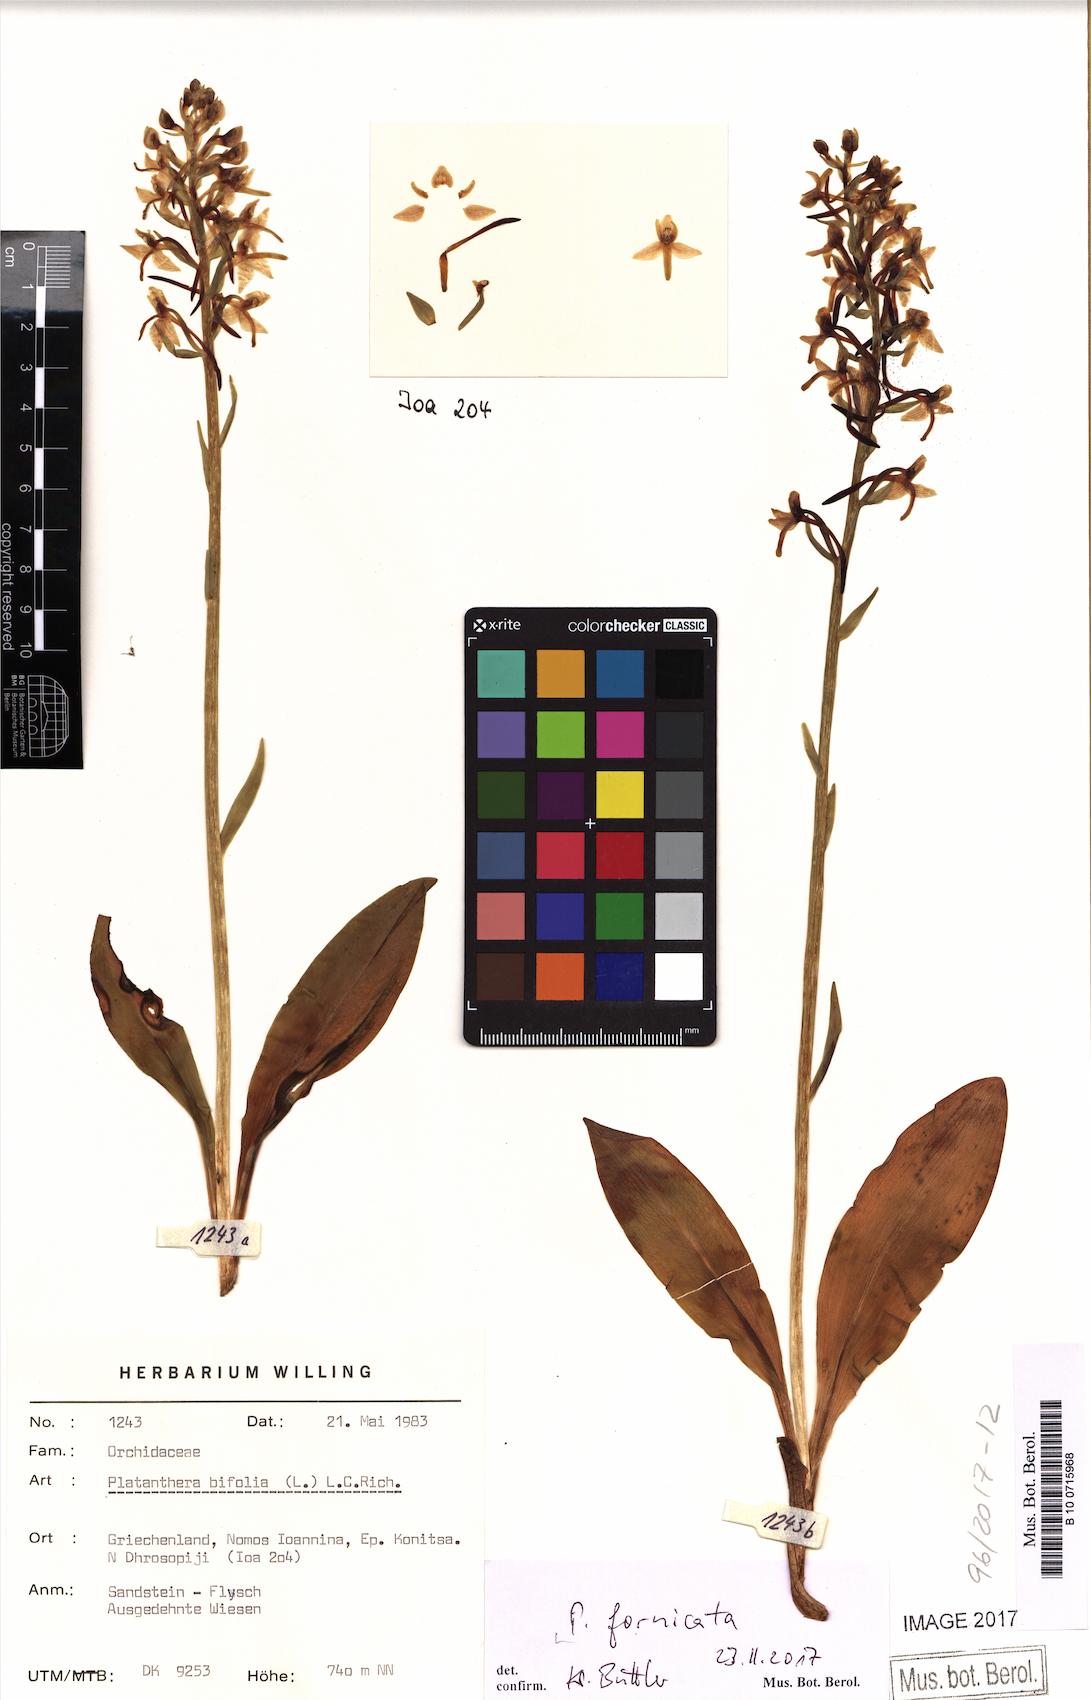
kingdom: Plantae
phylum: Tracheophyta
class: Liliopsida
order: Asparagales
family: Orchidaceae
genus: Platanthera
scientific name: Platanthera bifolia
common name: Lesser butterfly-orchid
